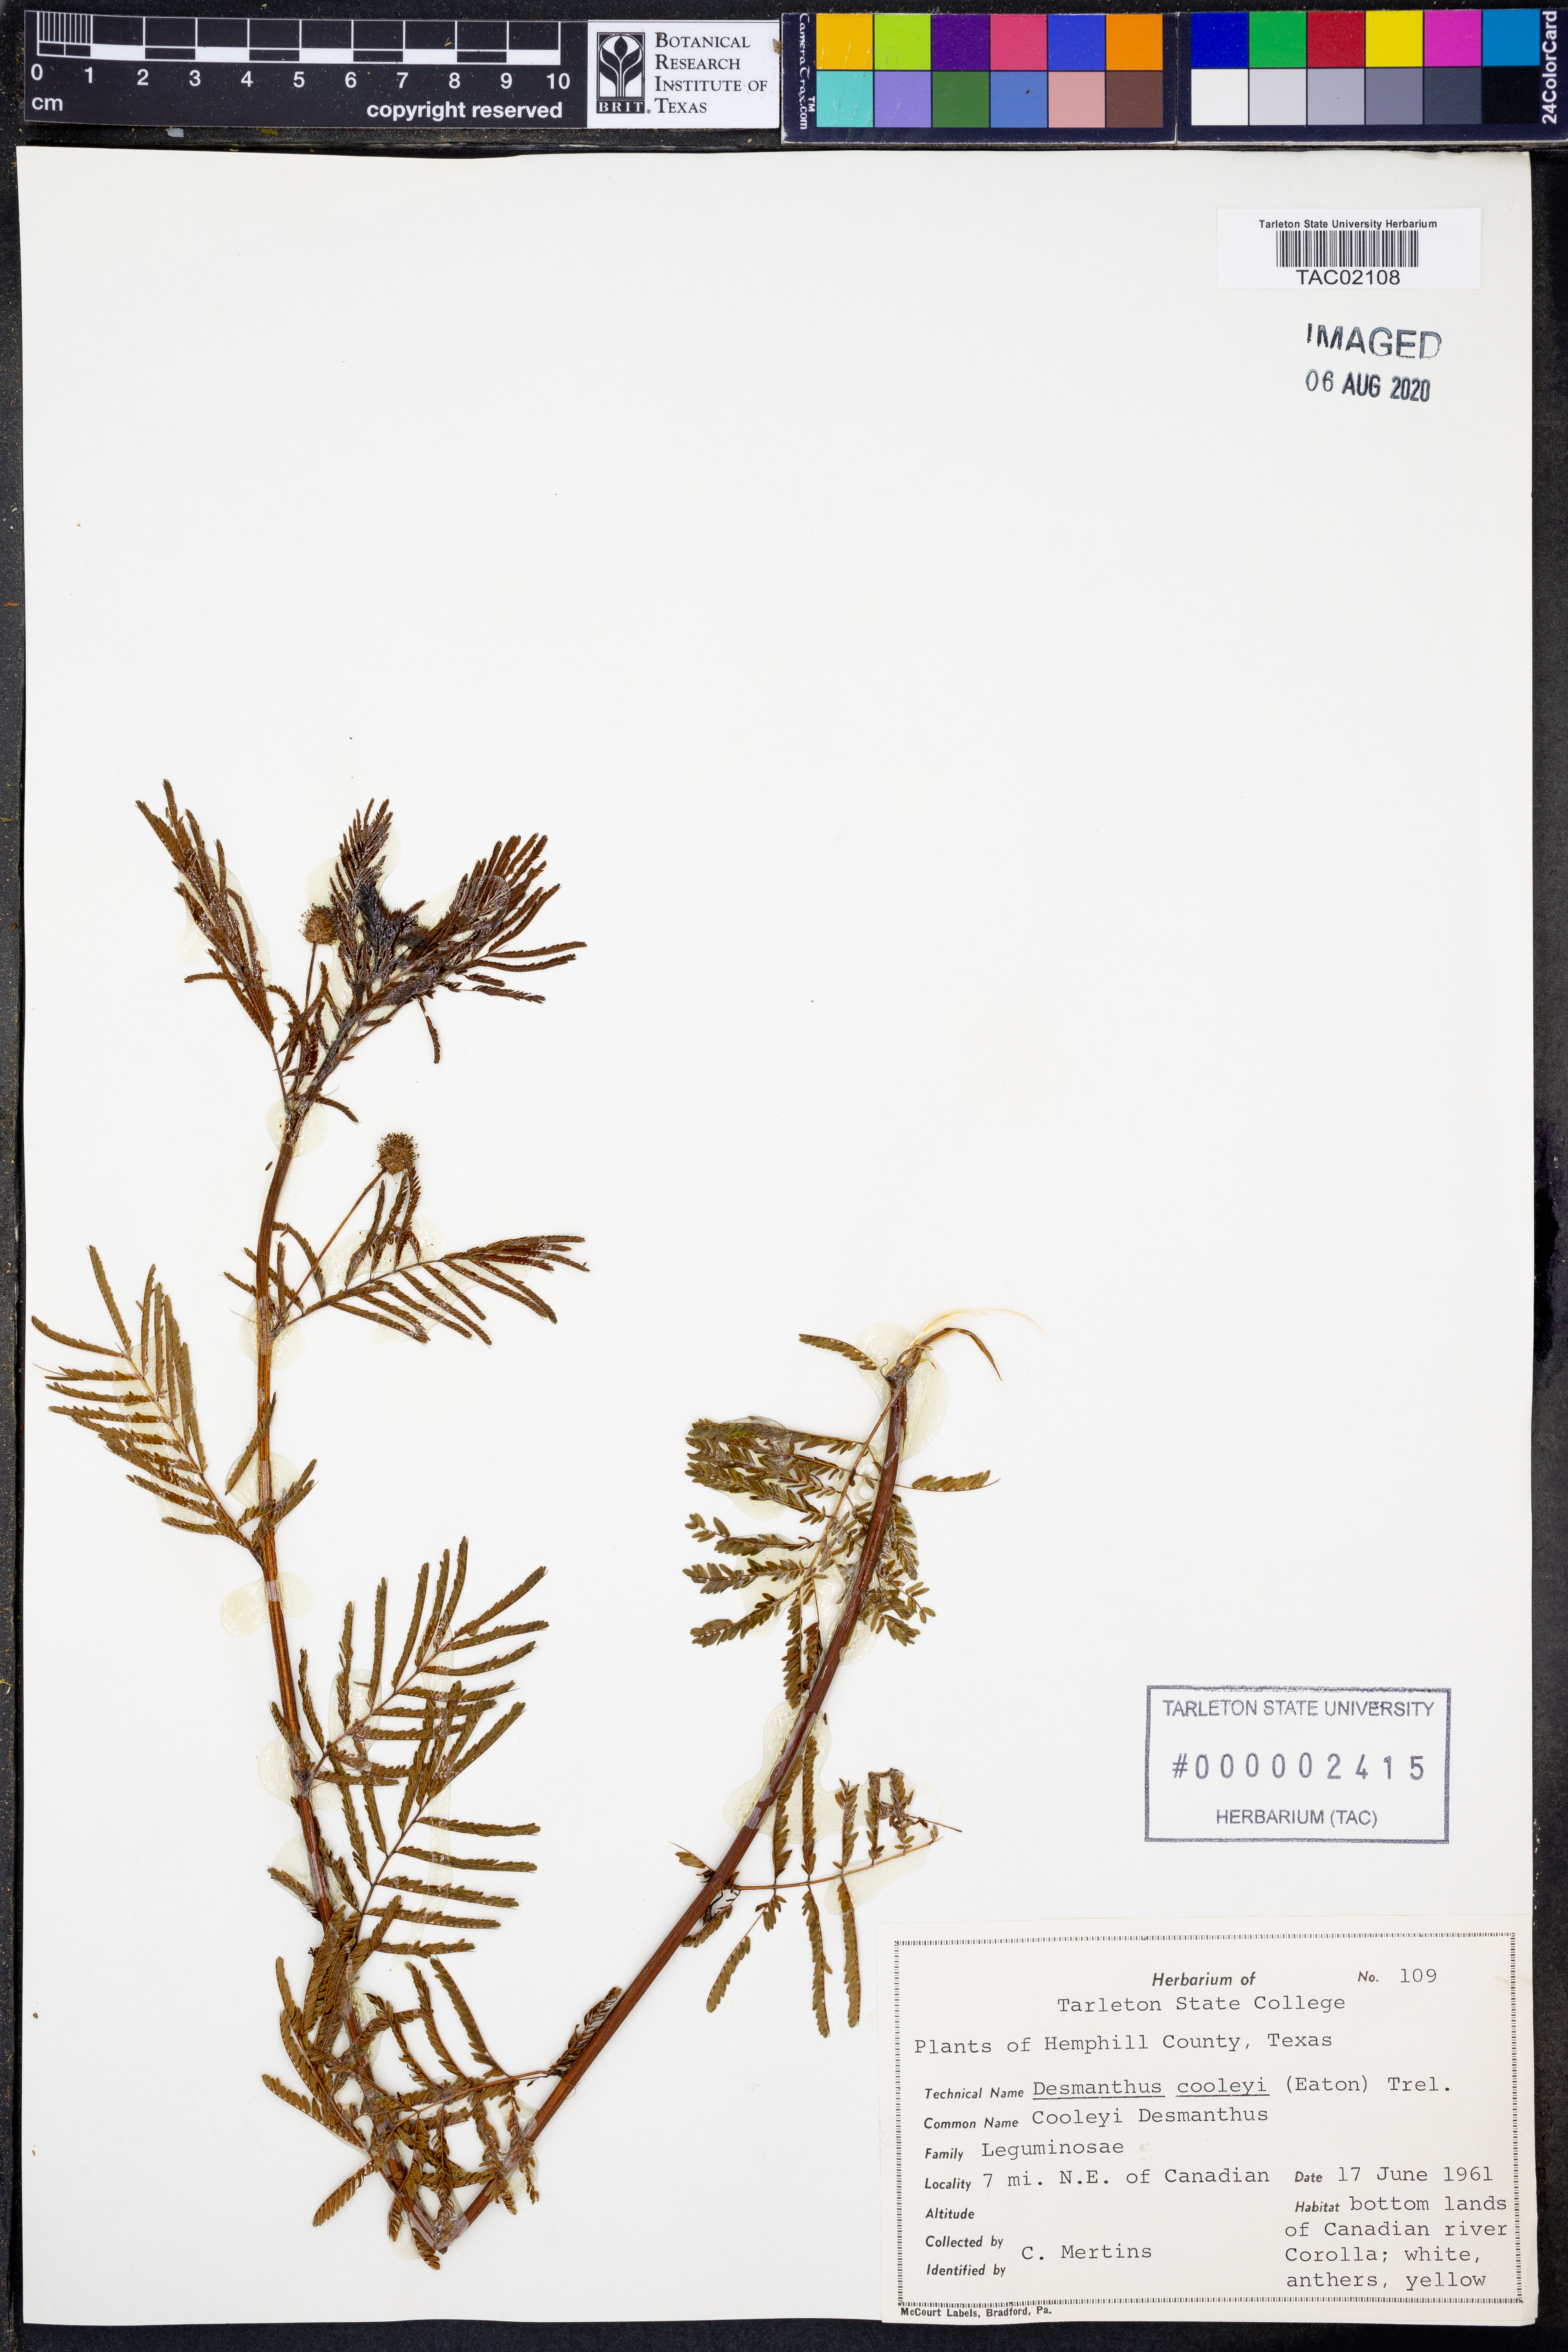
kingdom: Plantae
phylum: Tracheophyta
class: Magnoliopsida
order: Fabales
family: Fabaceae
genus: Desmanthus
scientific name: Desmanthus cooleyi
